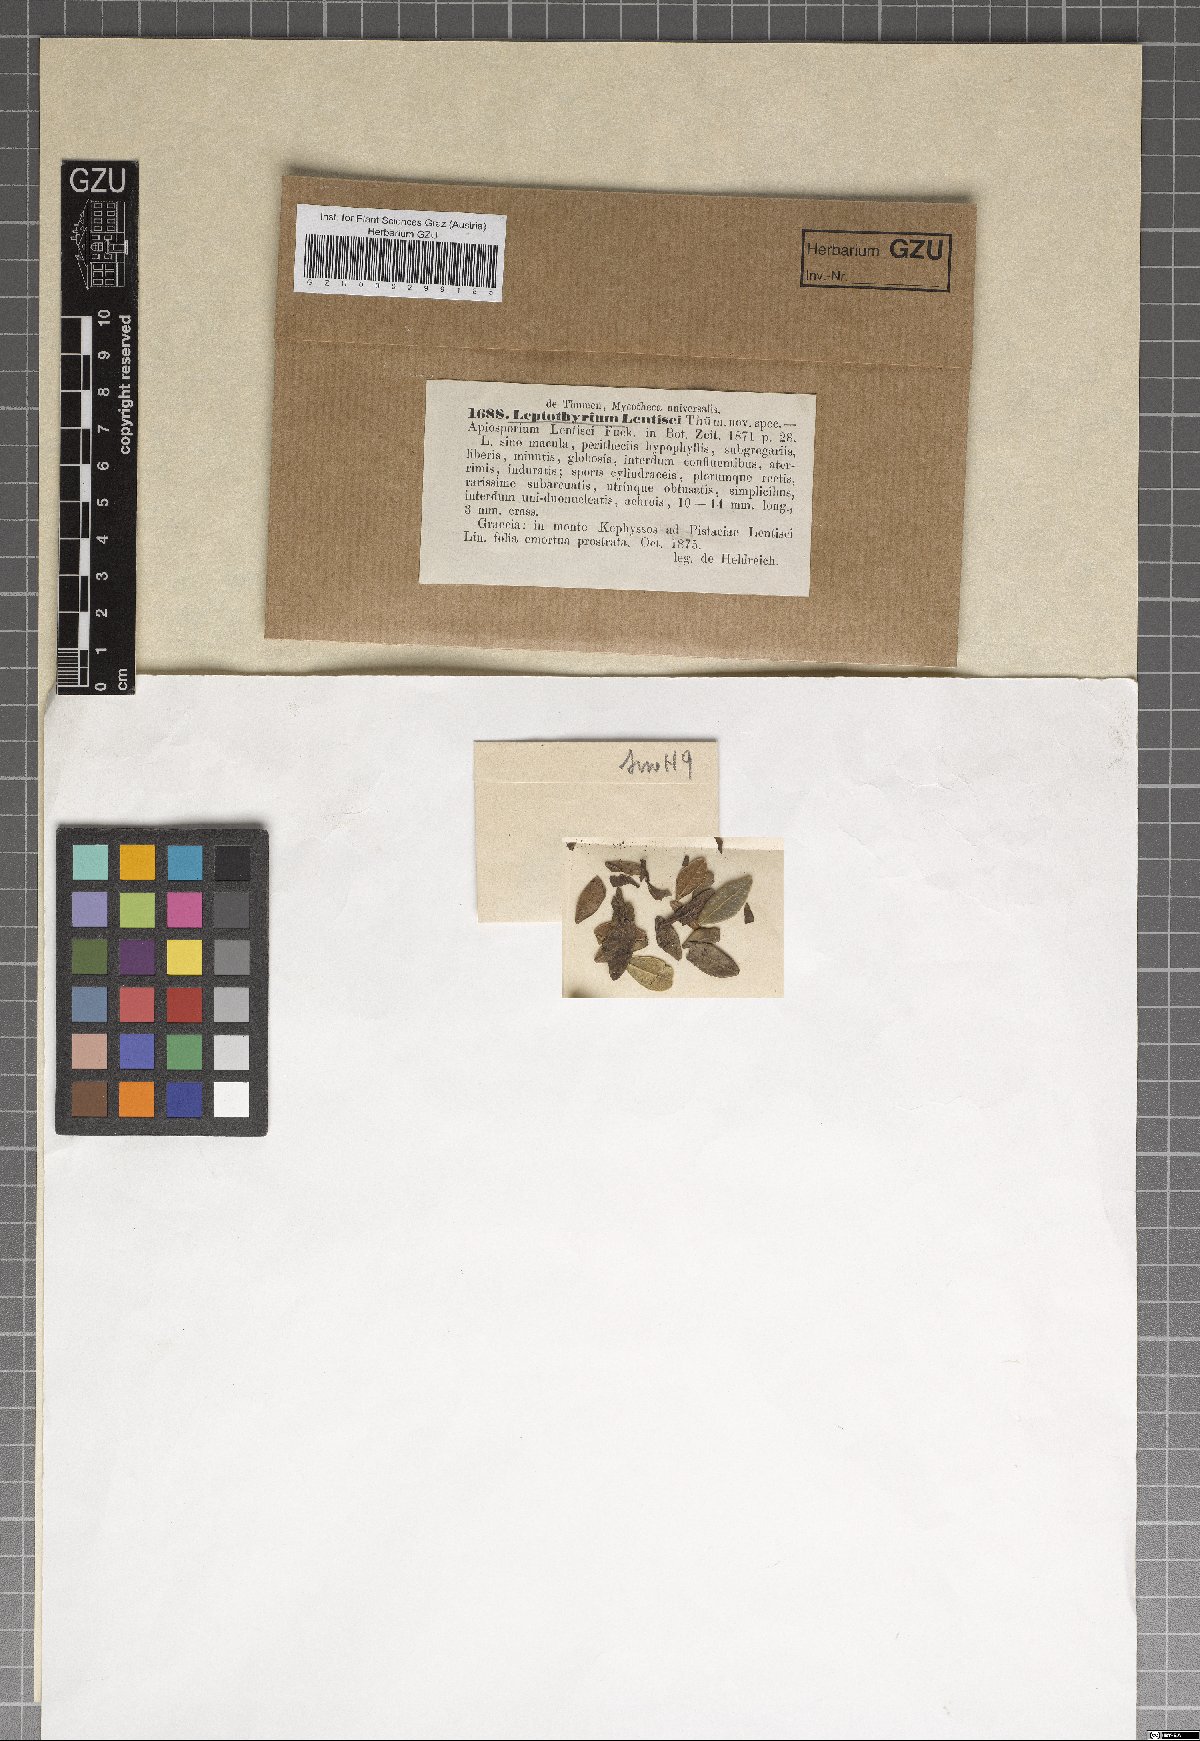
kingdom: Fungi
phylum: Ascomycota
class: Dothideomycetes
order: Pleosporales
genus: Leptothyrium
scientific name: Leptothyrium
